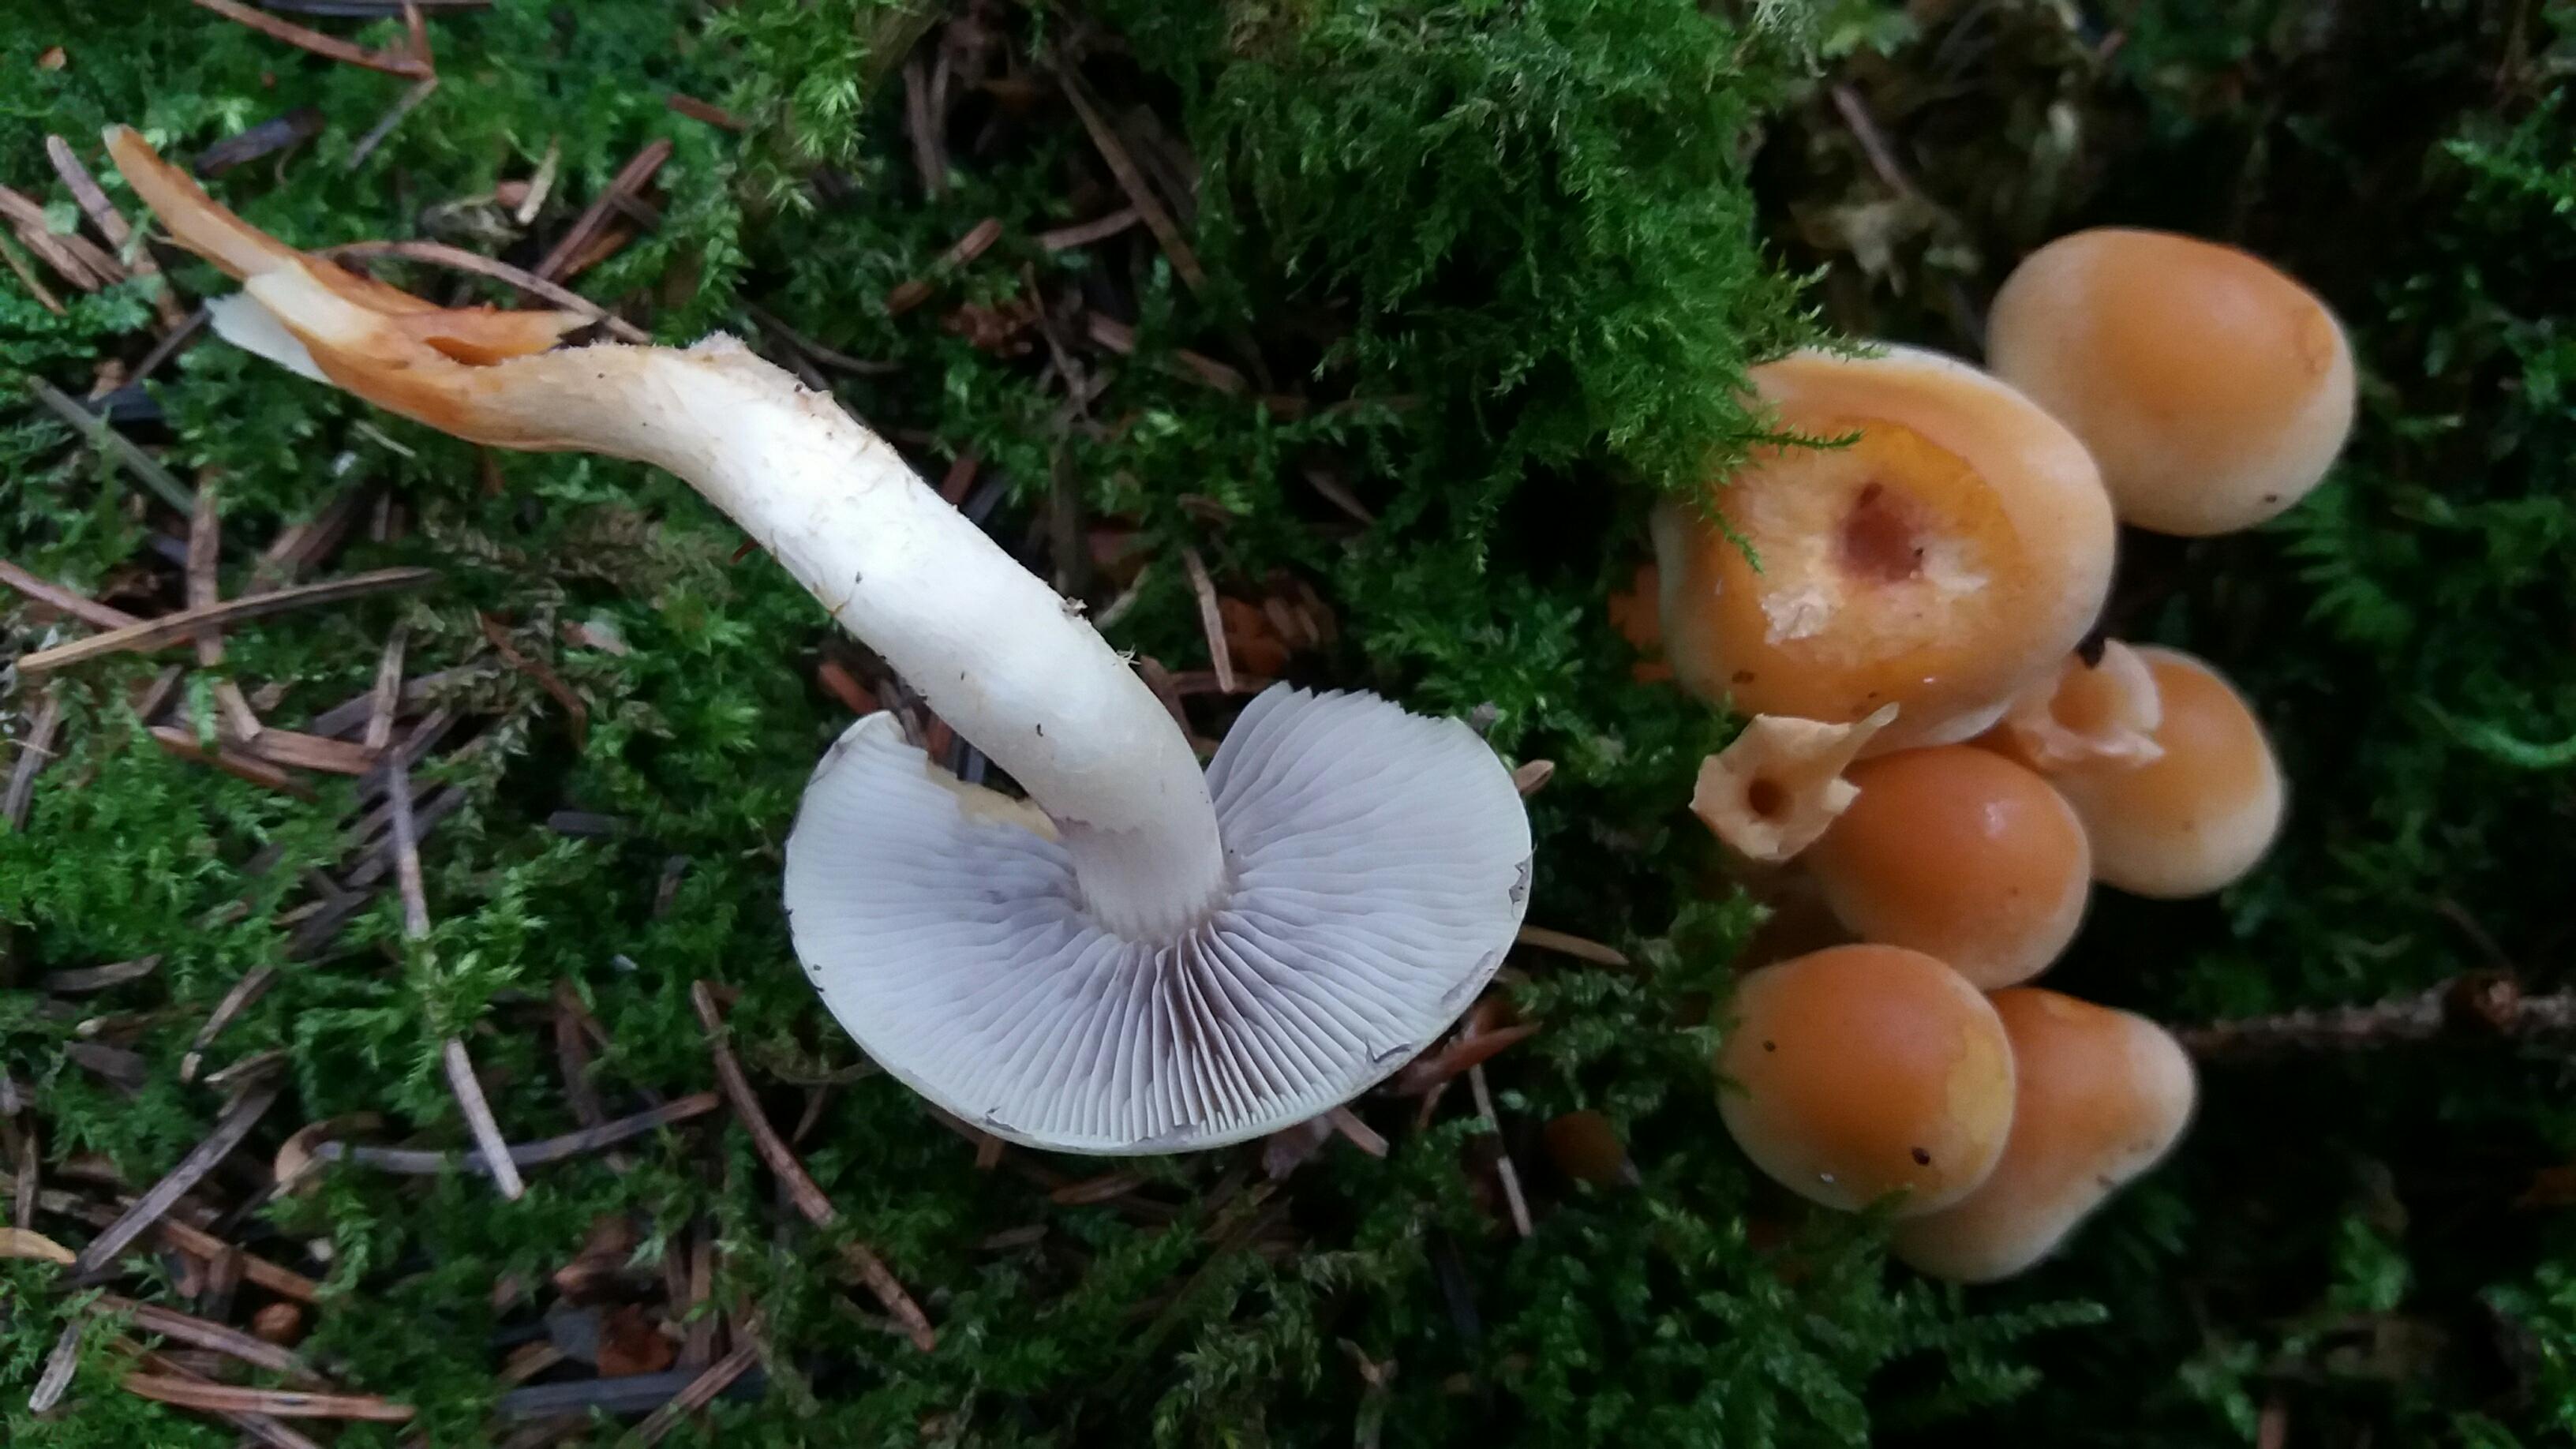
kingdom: Fungi
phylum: Basidiomycota
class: Agaricomycetes
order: Agaricales
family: Strophariaceae
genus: Hypholoma
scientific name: Hypholoma capnoides
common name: gran-svovlhat
